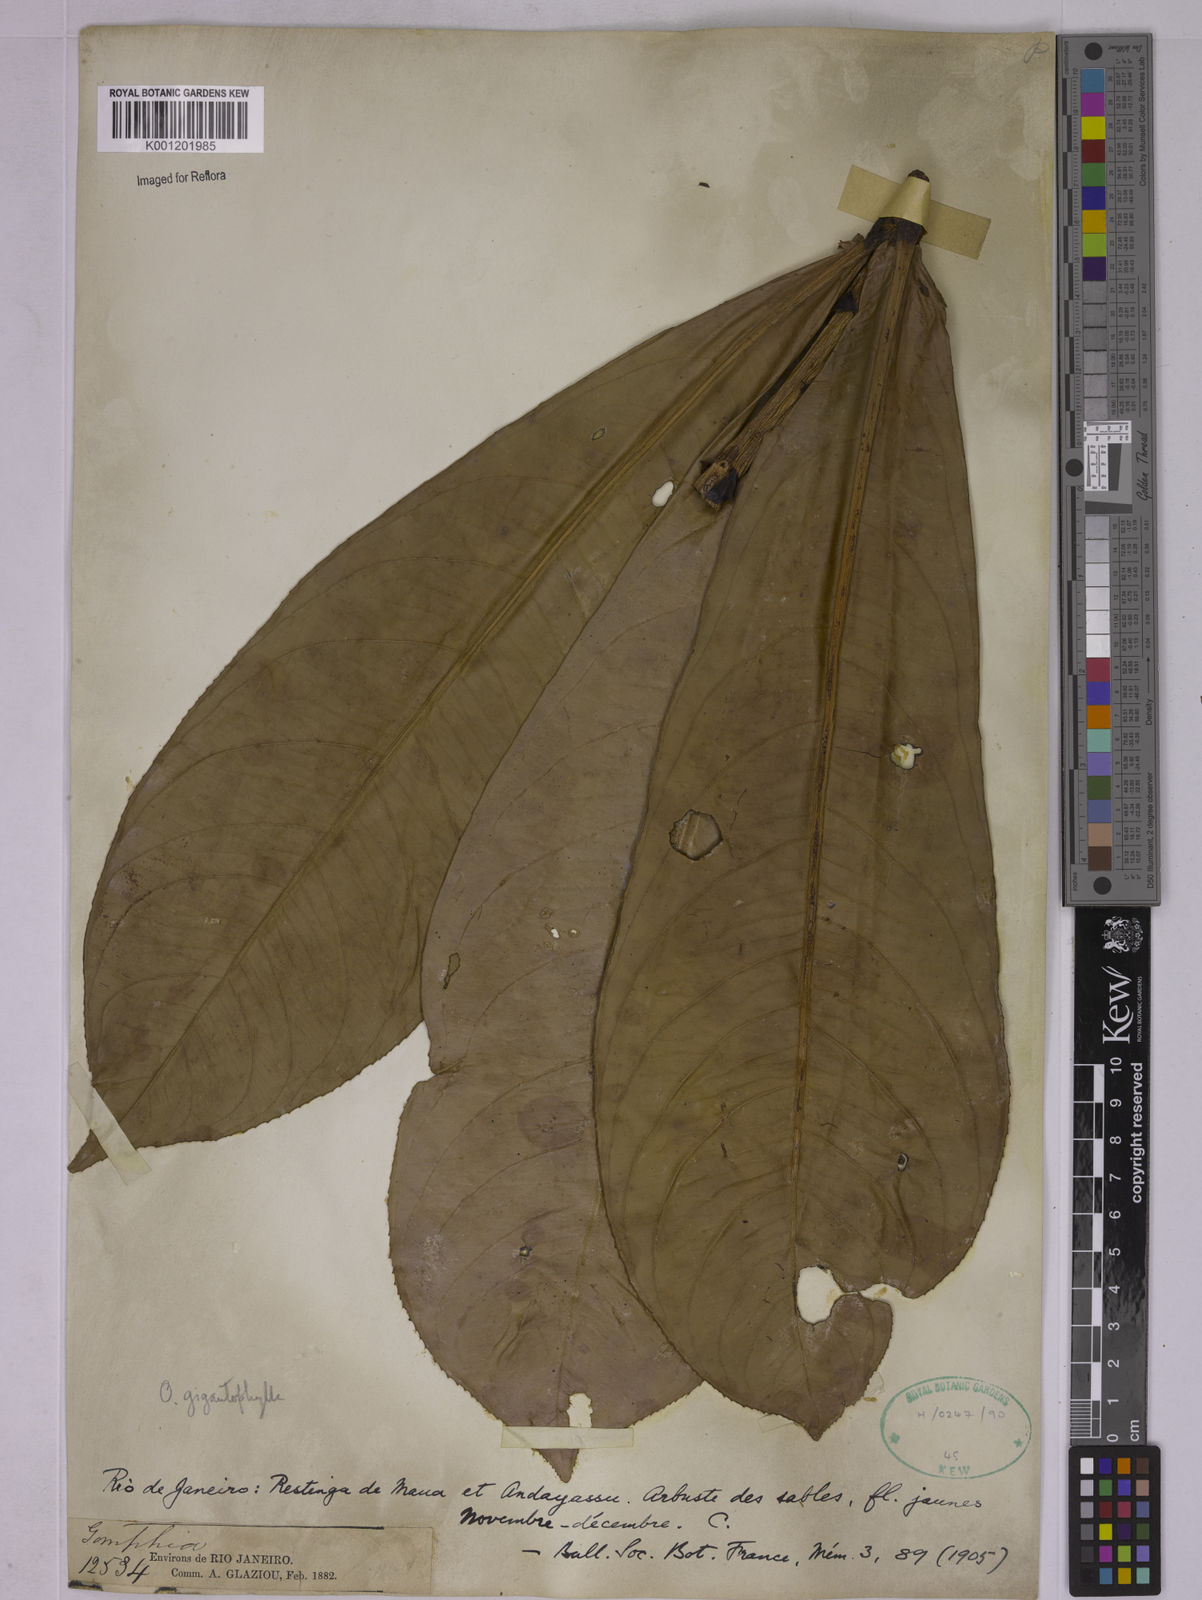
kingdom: Plantae
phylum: Tracheophyta
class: Magnoliopsida
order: Malpighiales
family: Ochnaceae
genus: Ouratea
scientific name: Ouratea gigantophylla
